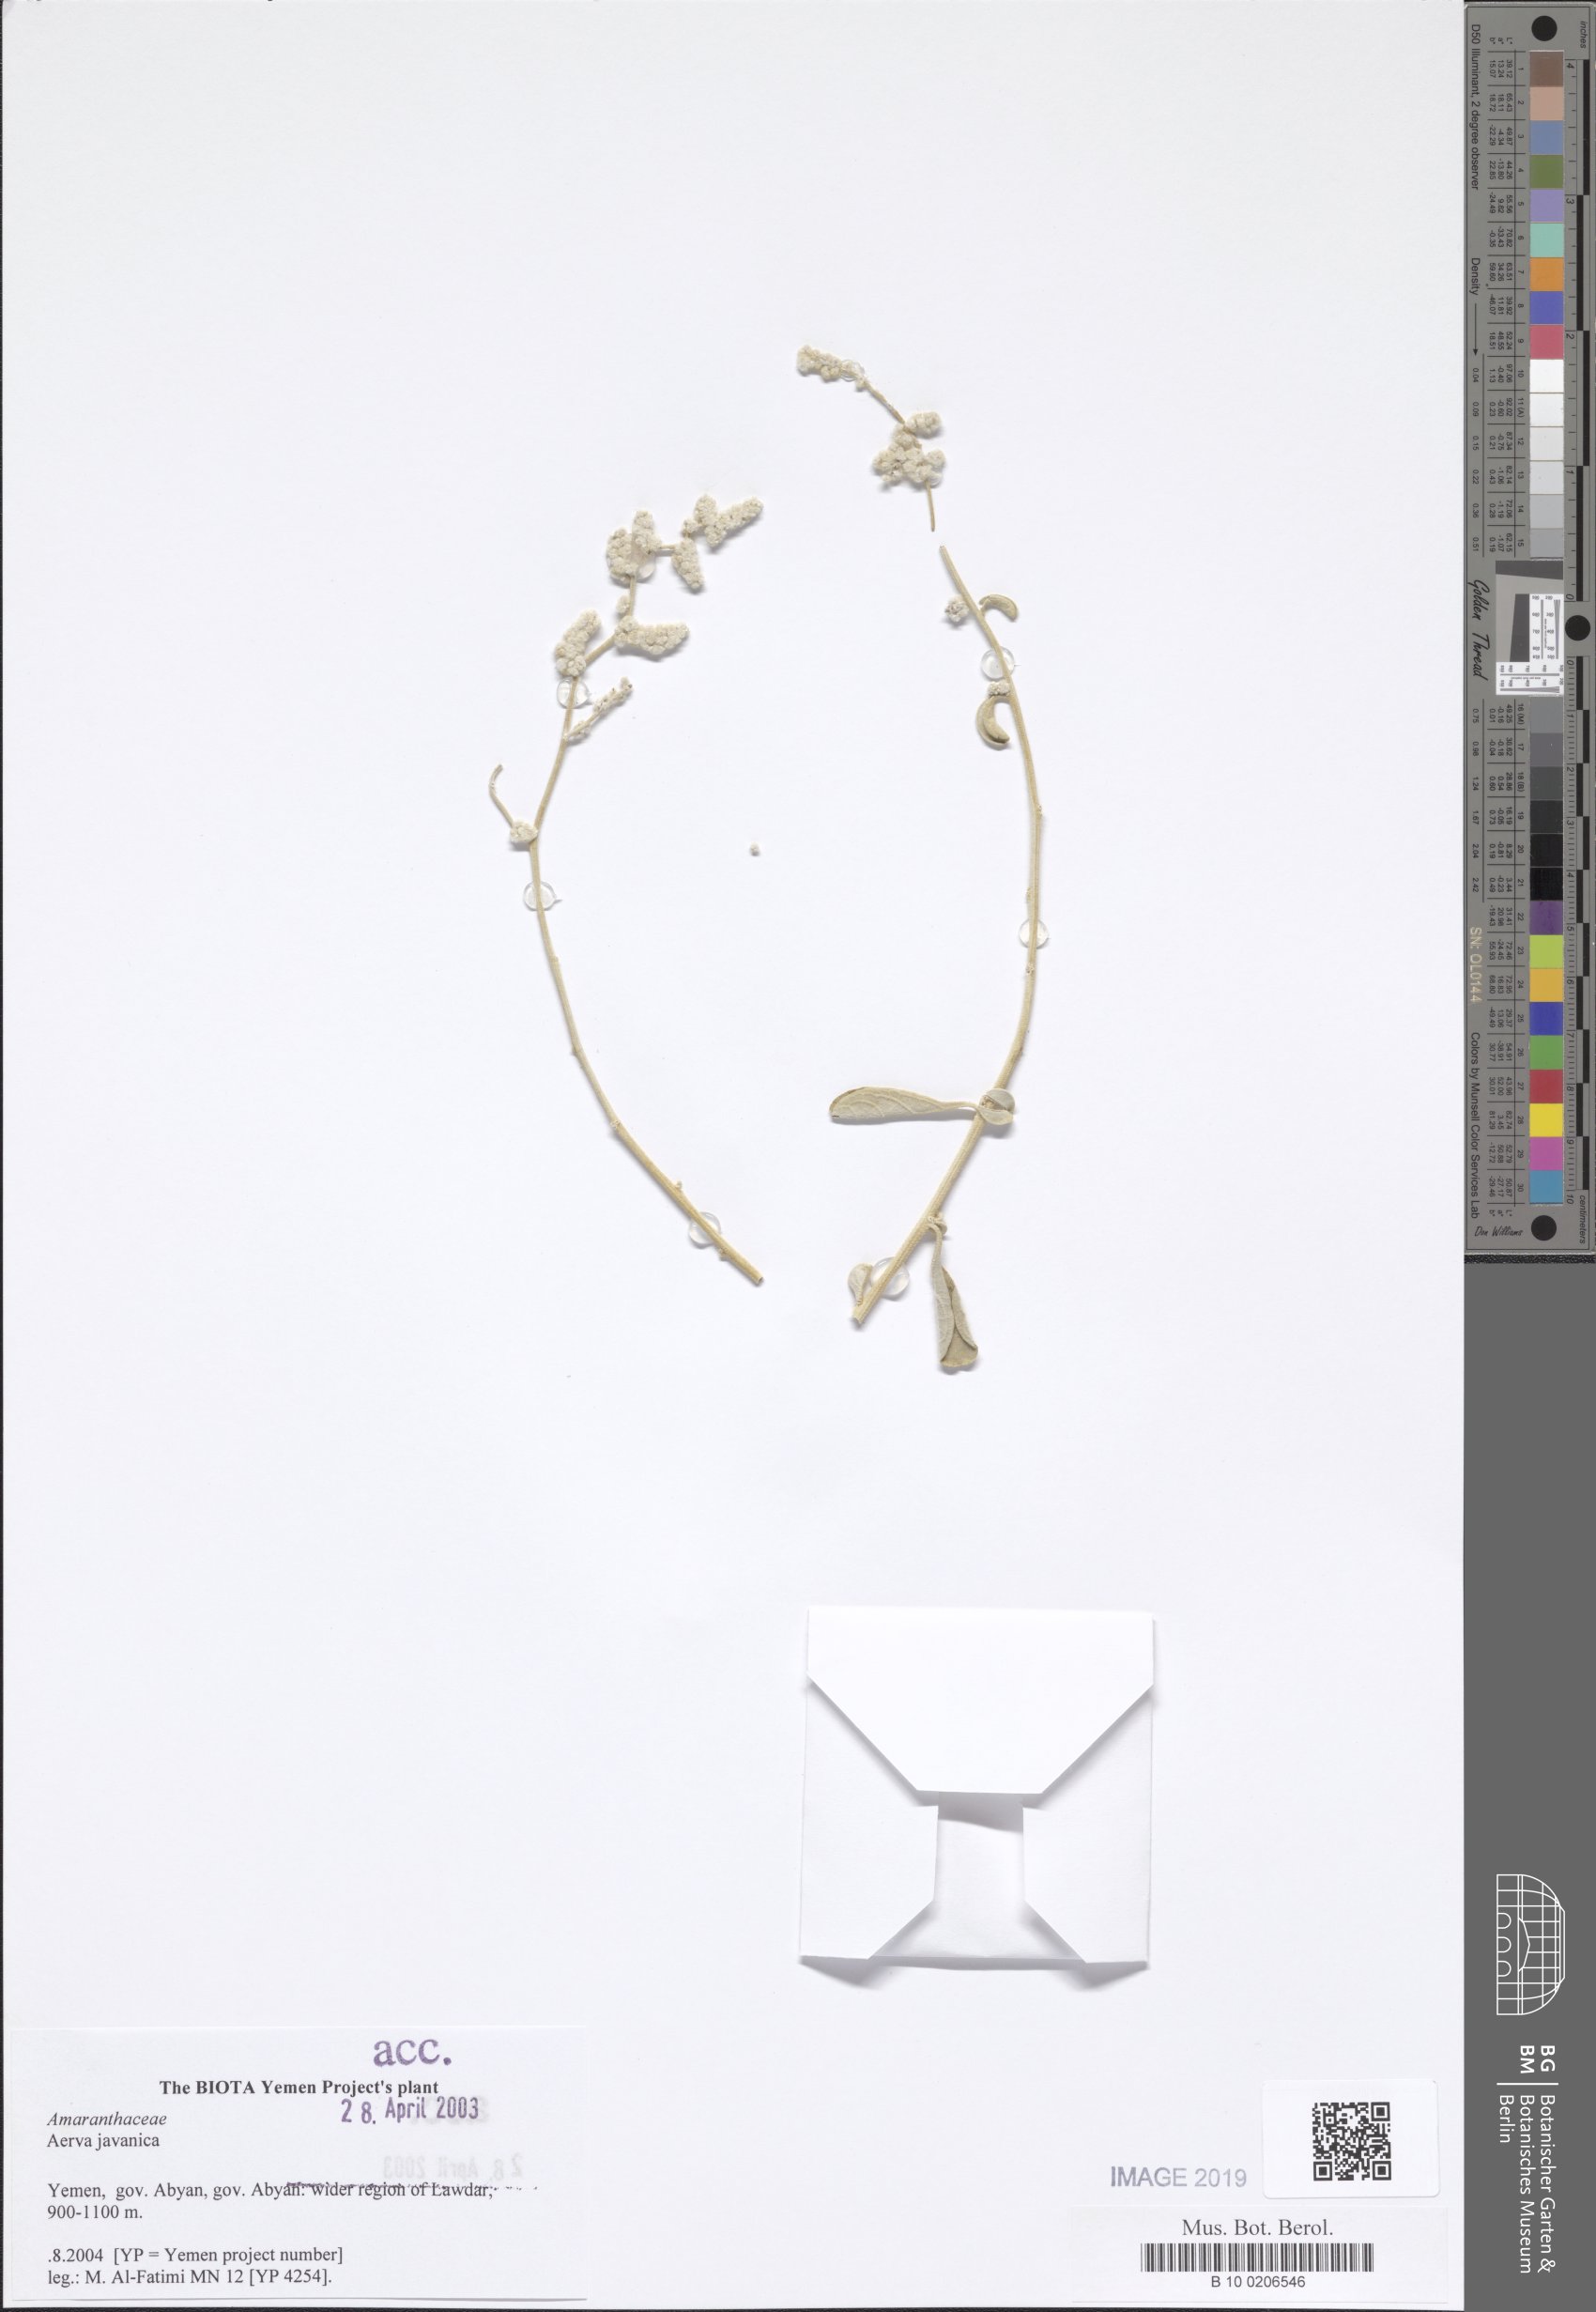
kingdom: Plantae
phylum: Tracheophyta
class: Magnoliopsida
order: Caryophyllales
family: Amaranthaceae
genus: Aerva
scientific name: Aerva javanica
